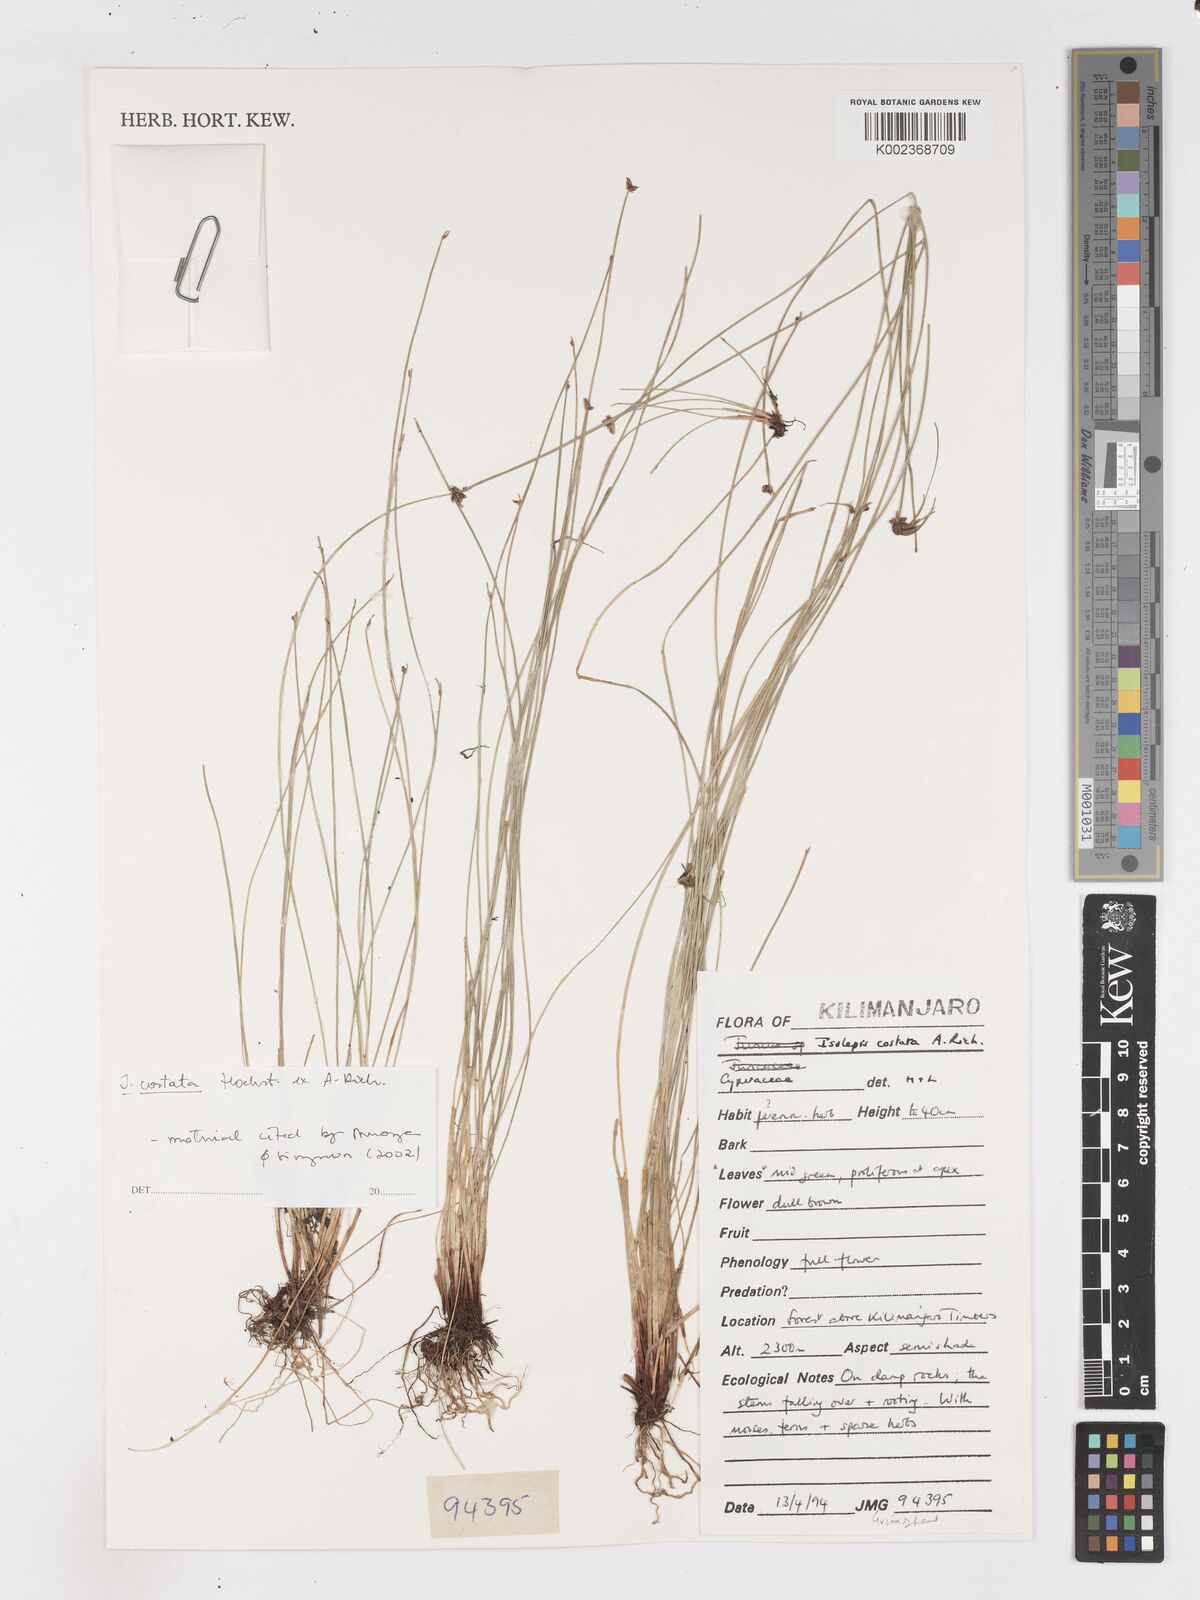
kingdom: Plantae
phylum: Tracheophyta
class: Liliopsida
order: Poales
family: Cyperaceae
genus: Isolepis
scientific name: Isolepis costata
